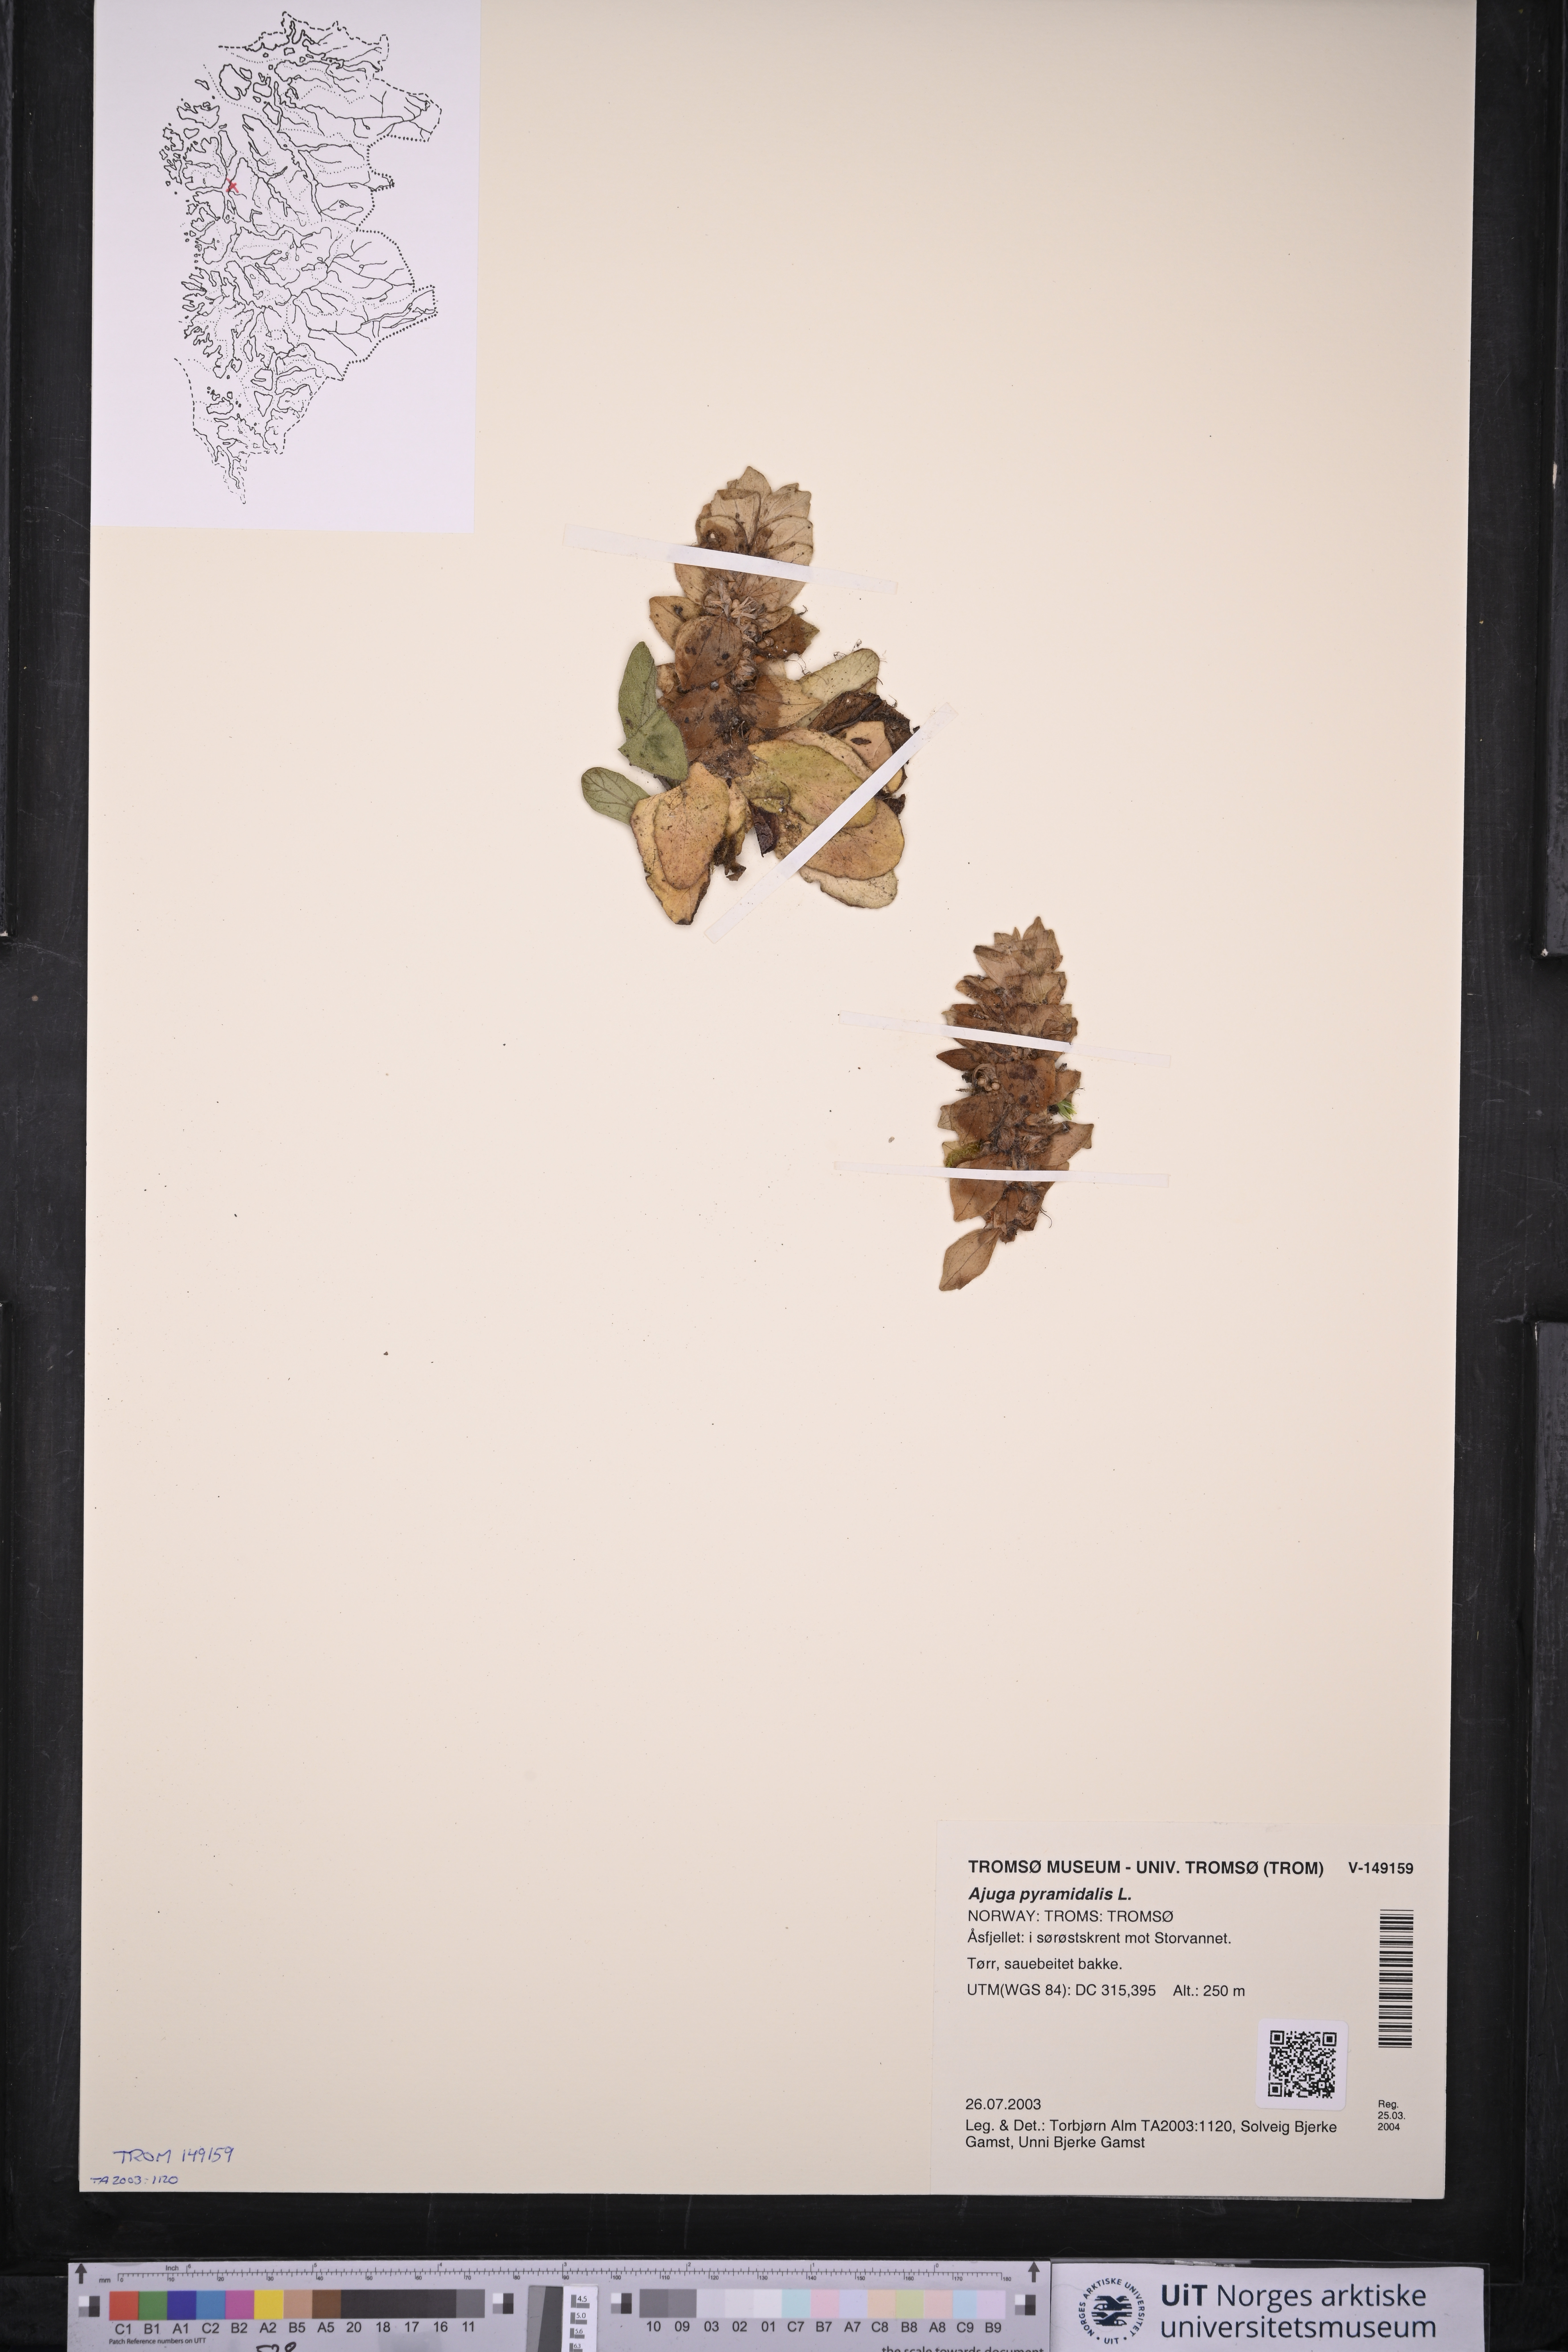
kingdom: Plantae
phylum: Tracheophyta
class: Magnoliopsida
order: Lamiales
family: Lamiaceae
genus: Ajuga
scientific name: Ajuga pyramidalis
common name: Pyramid bugle
